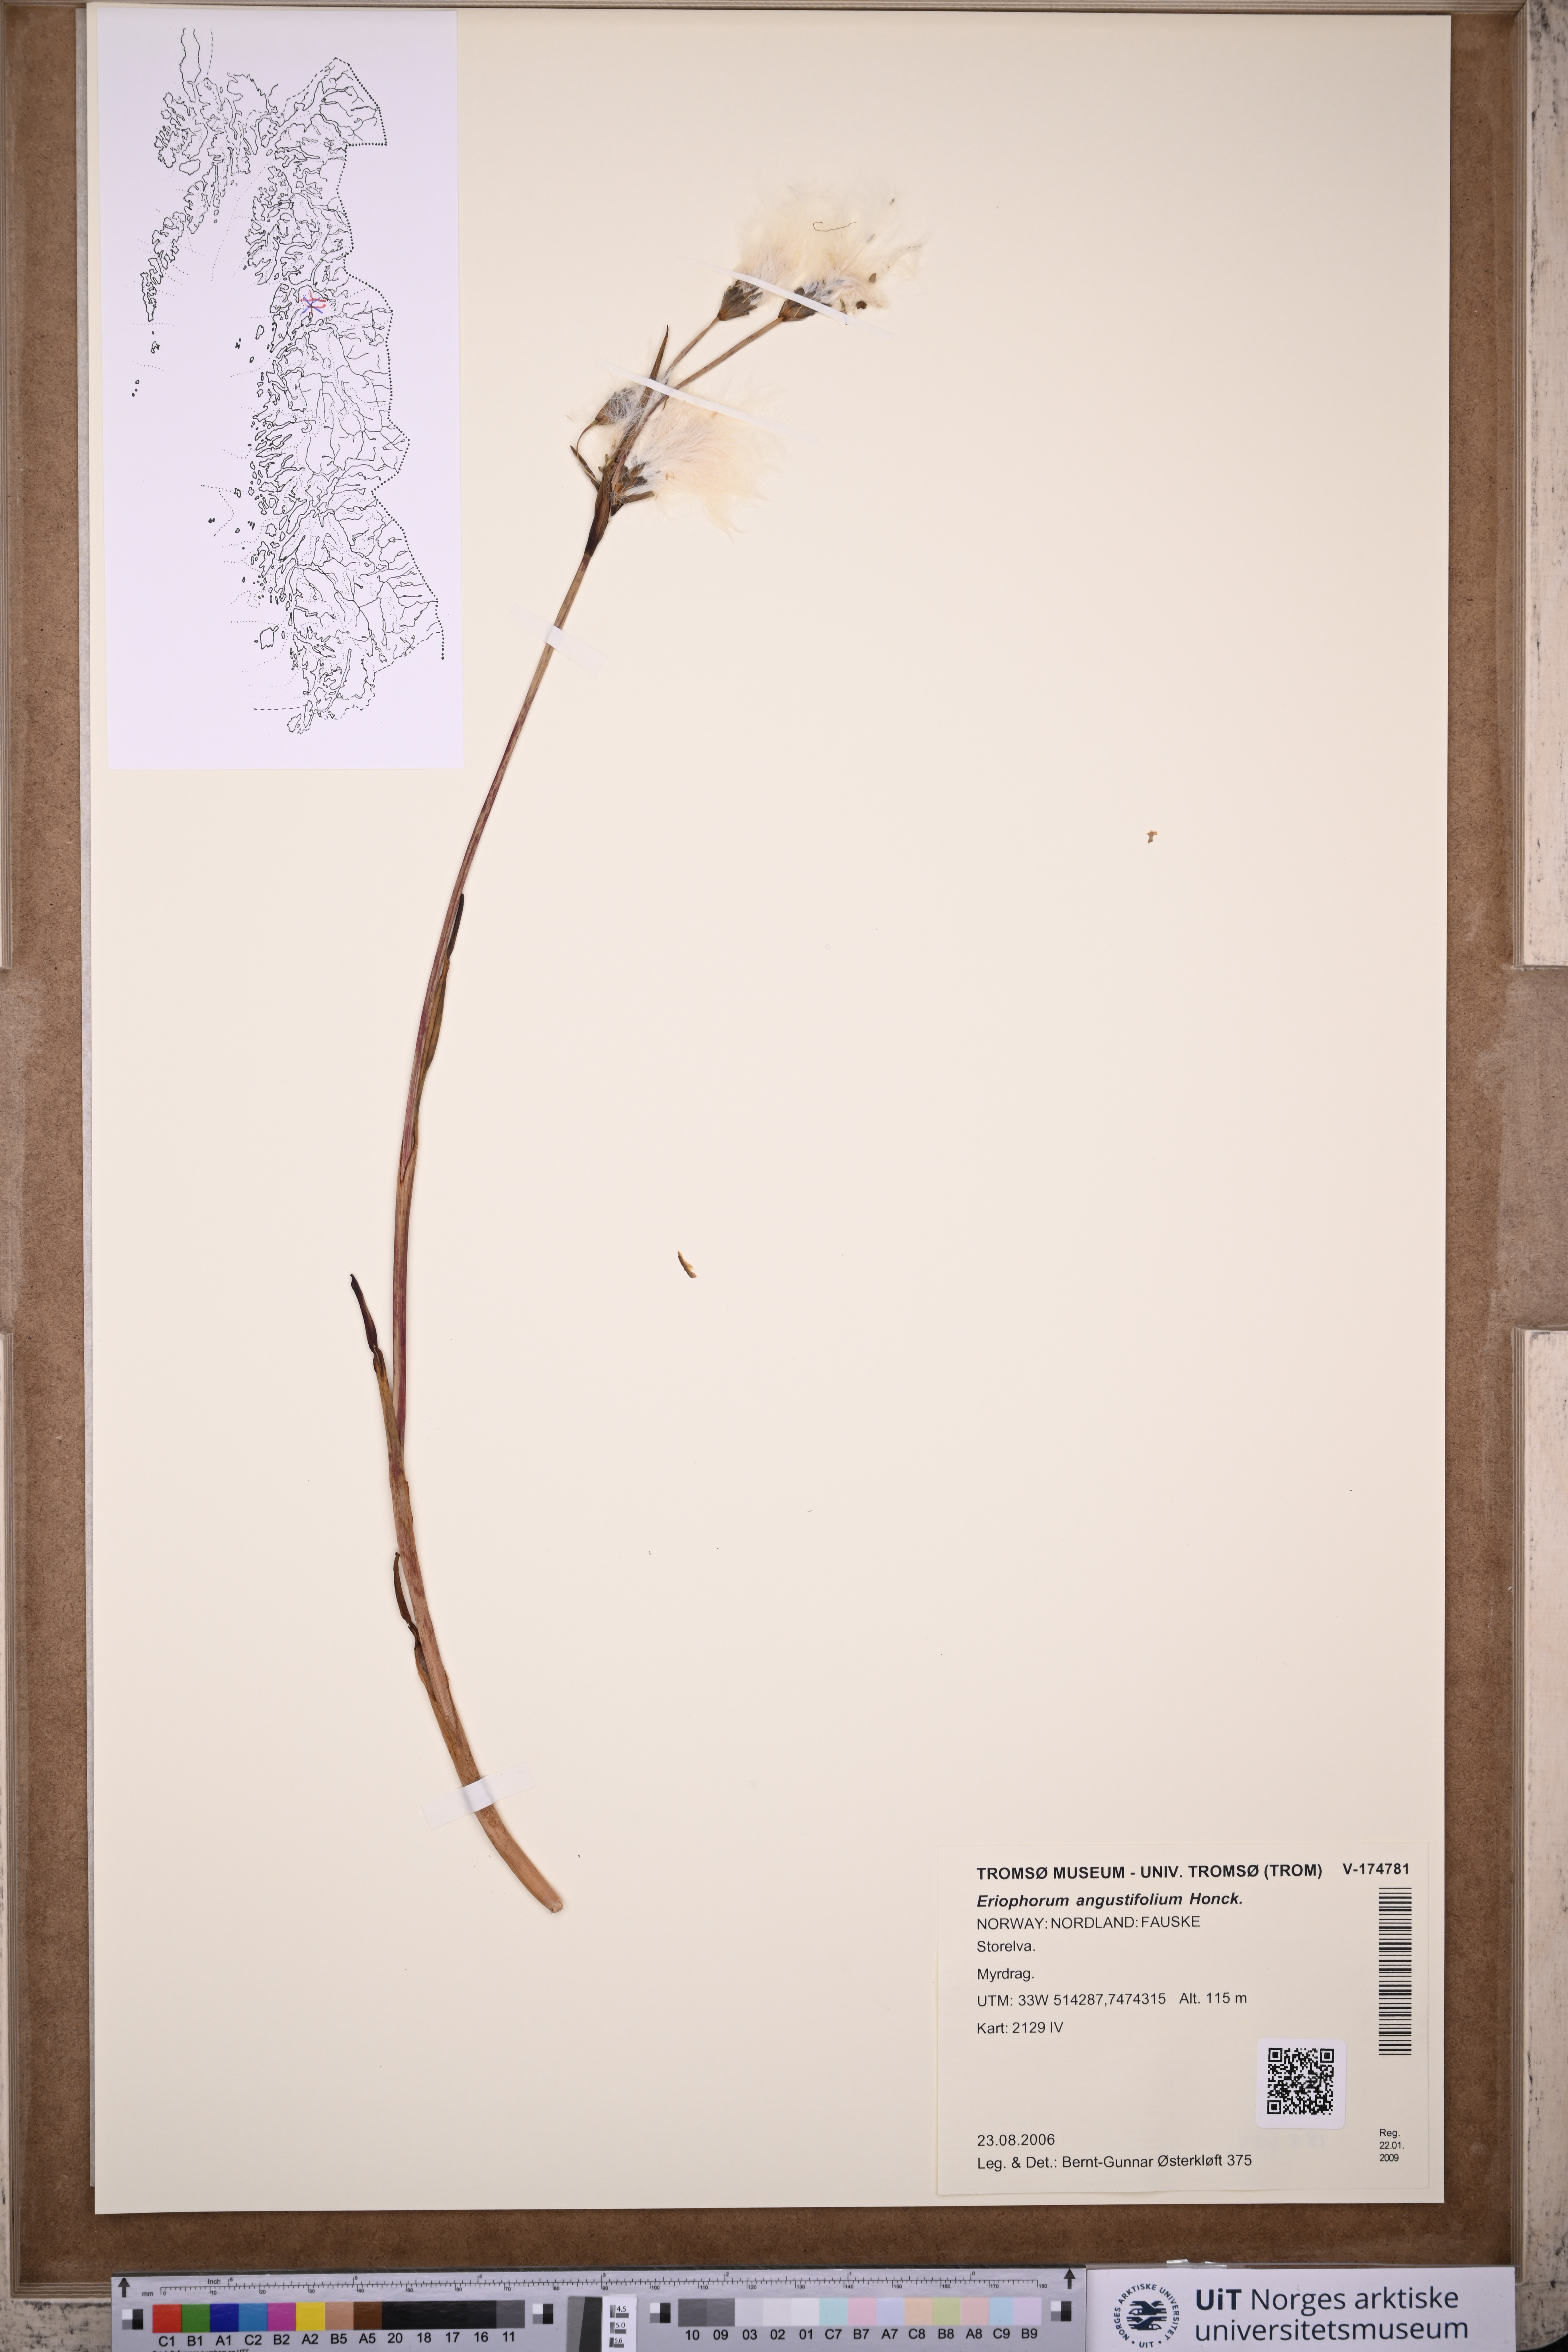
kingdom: Plantae
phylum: Tracheophyta
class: Liliopsida
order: Poales
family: Cyperaceae
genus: Eriophorum
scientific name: Eriophorum angustifolium
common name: Common cottongrass
